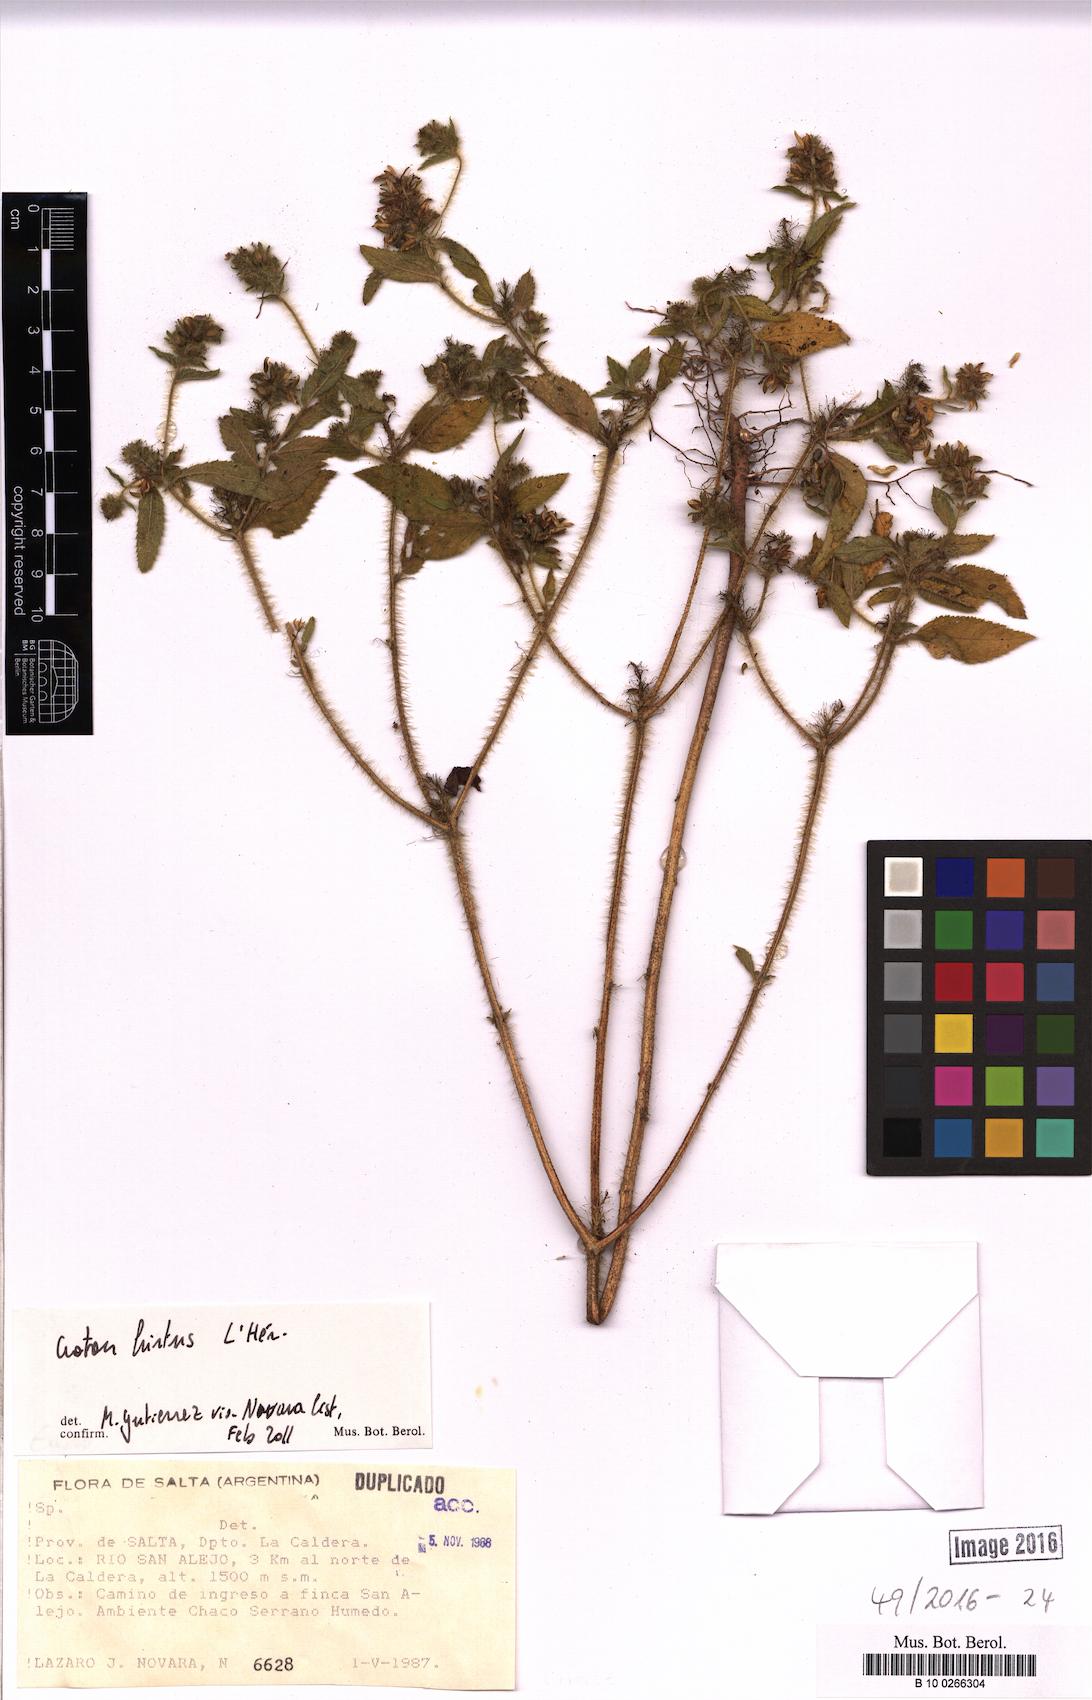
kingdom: Plantae
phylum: Tracheophyta
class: Magnoliopsida
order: Malpighiales
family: Euphorbiaceae
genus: Croton
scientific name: Croton hirtus
